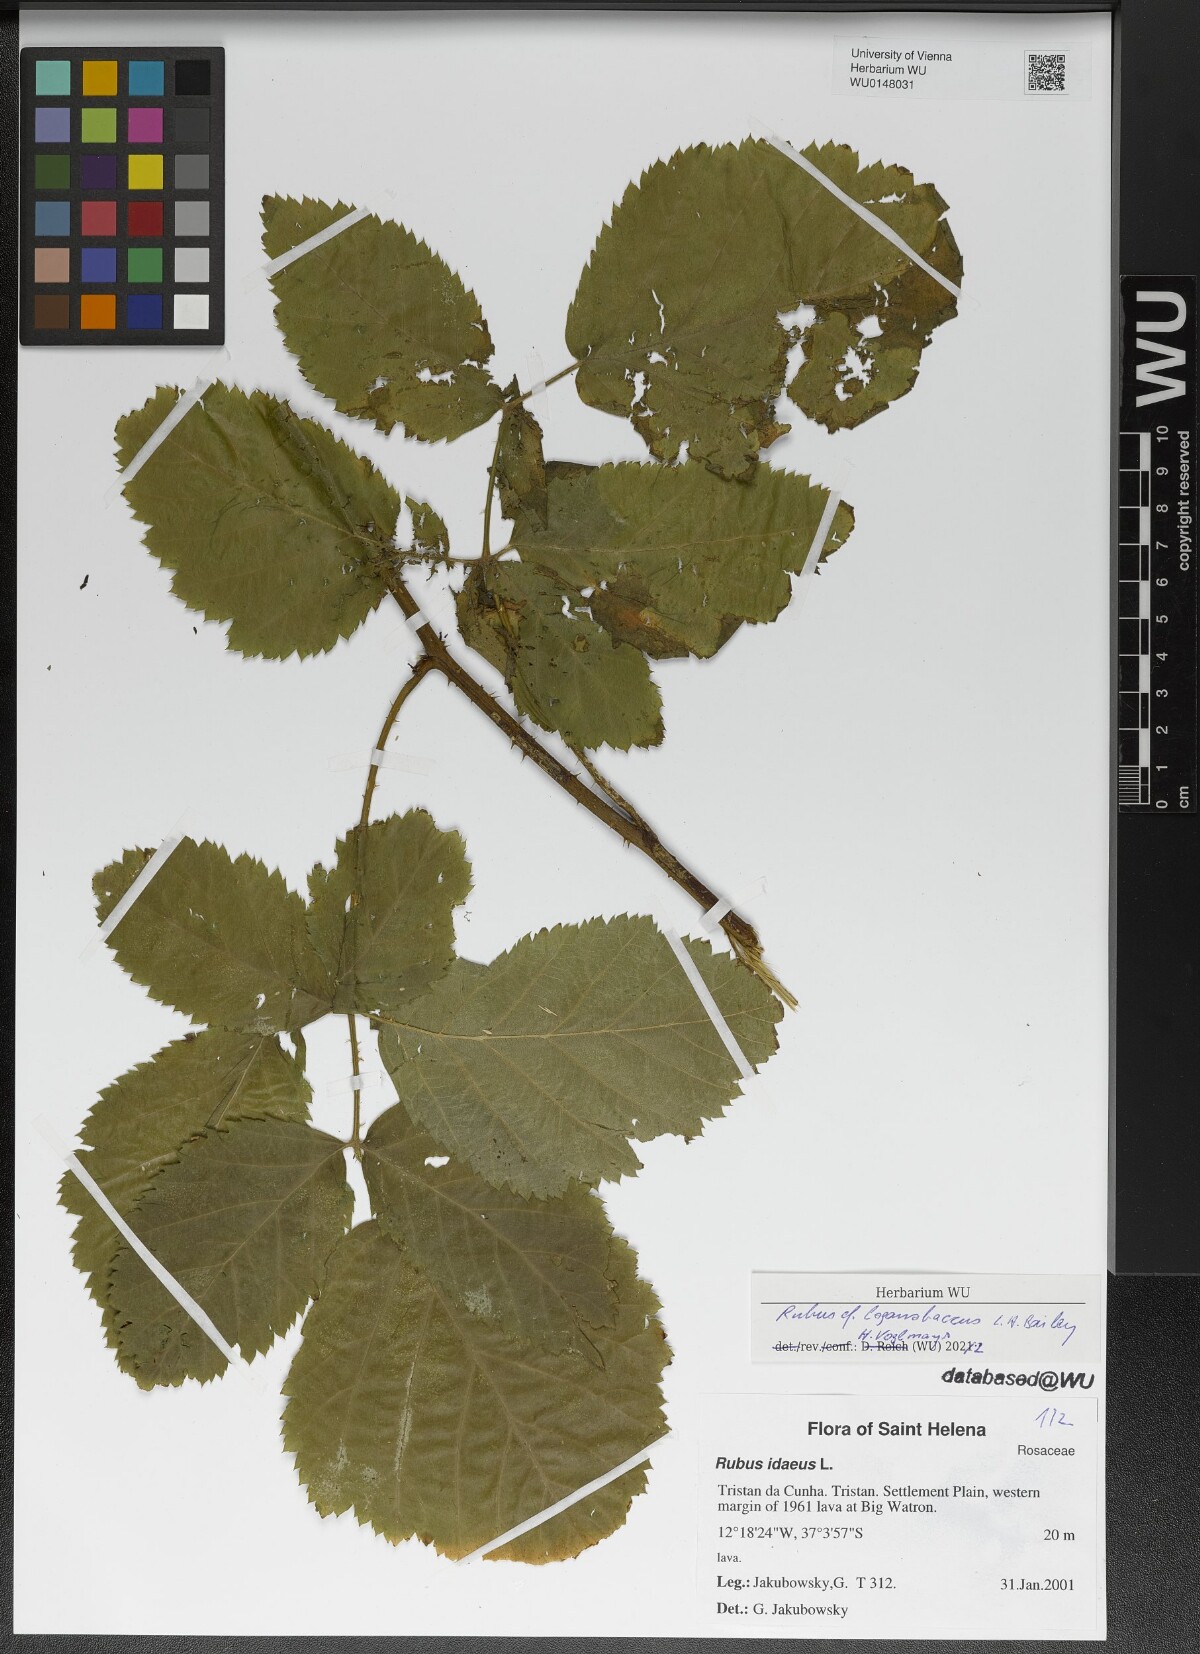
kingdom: Plantae
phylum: Tracheophyta
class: Magnoliopsida
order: Rosales
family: Rosaceae
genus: Rubus
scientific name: Rubus loganobaccus
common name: Loganberry
